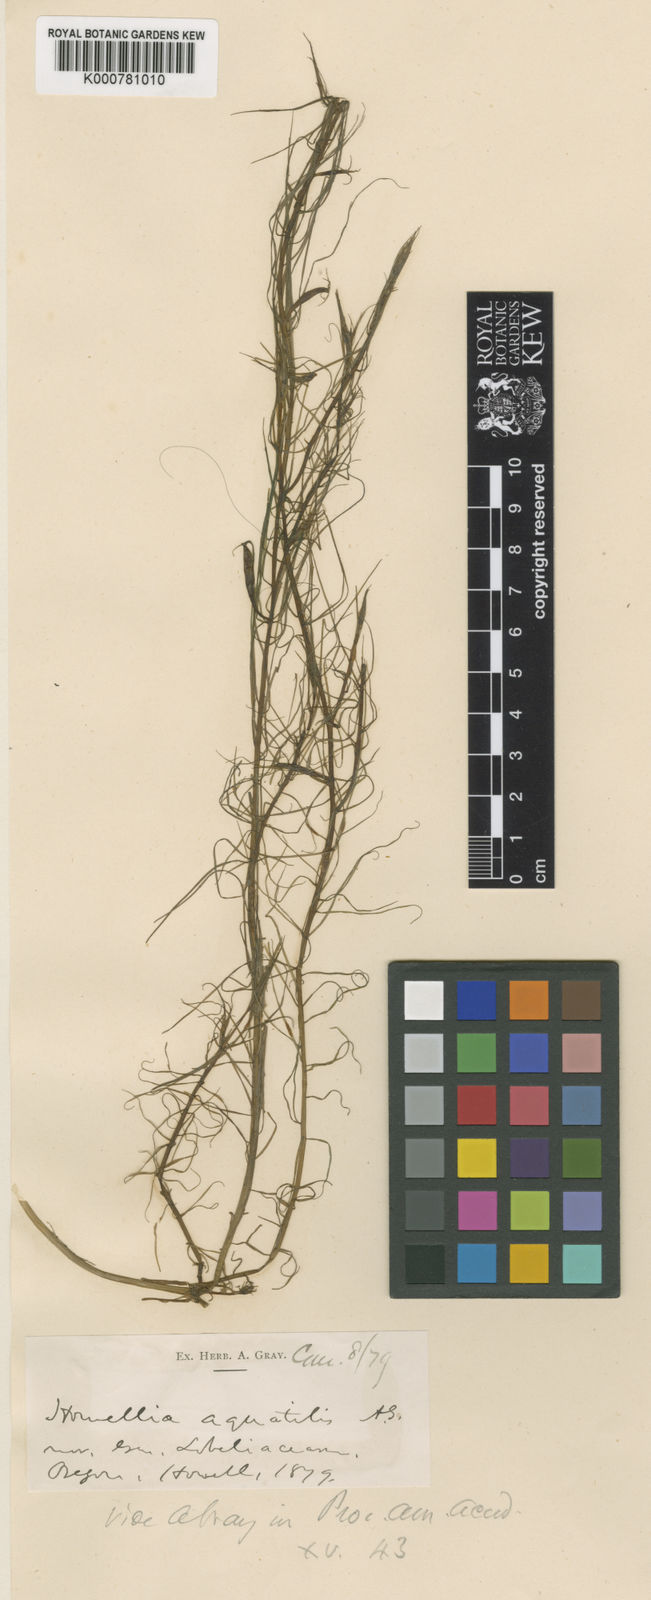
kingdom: Plantae
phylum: Tracheophyta
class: Magnoliopsida
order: Asterales
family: Campanulaceae
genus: Howellia
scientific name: Howellia aquatilis
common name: Water howellia
